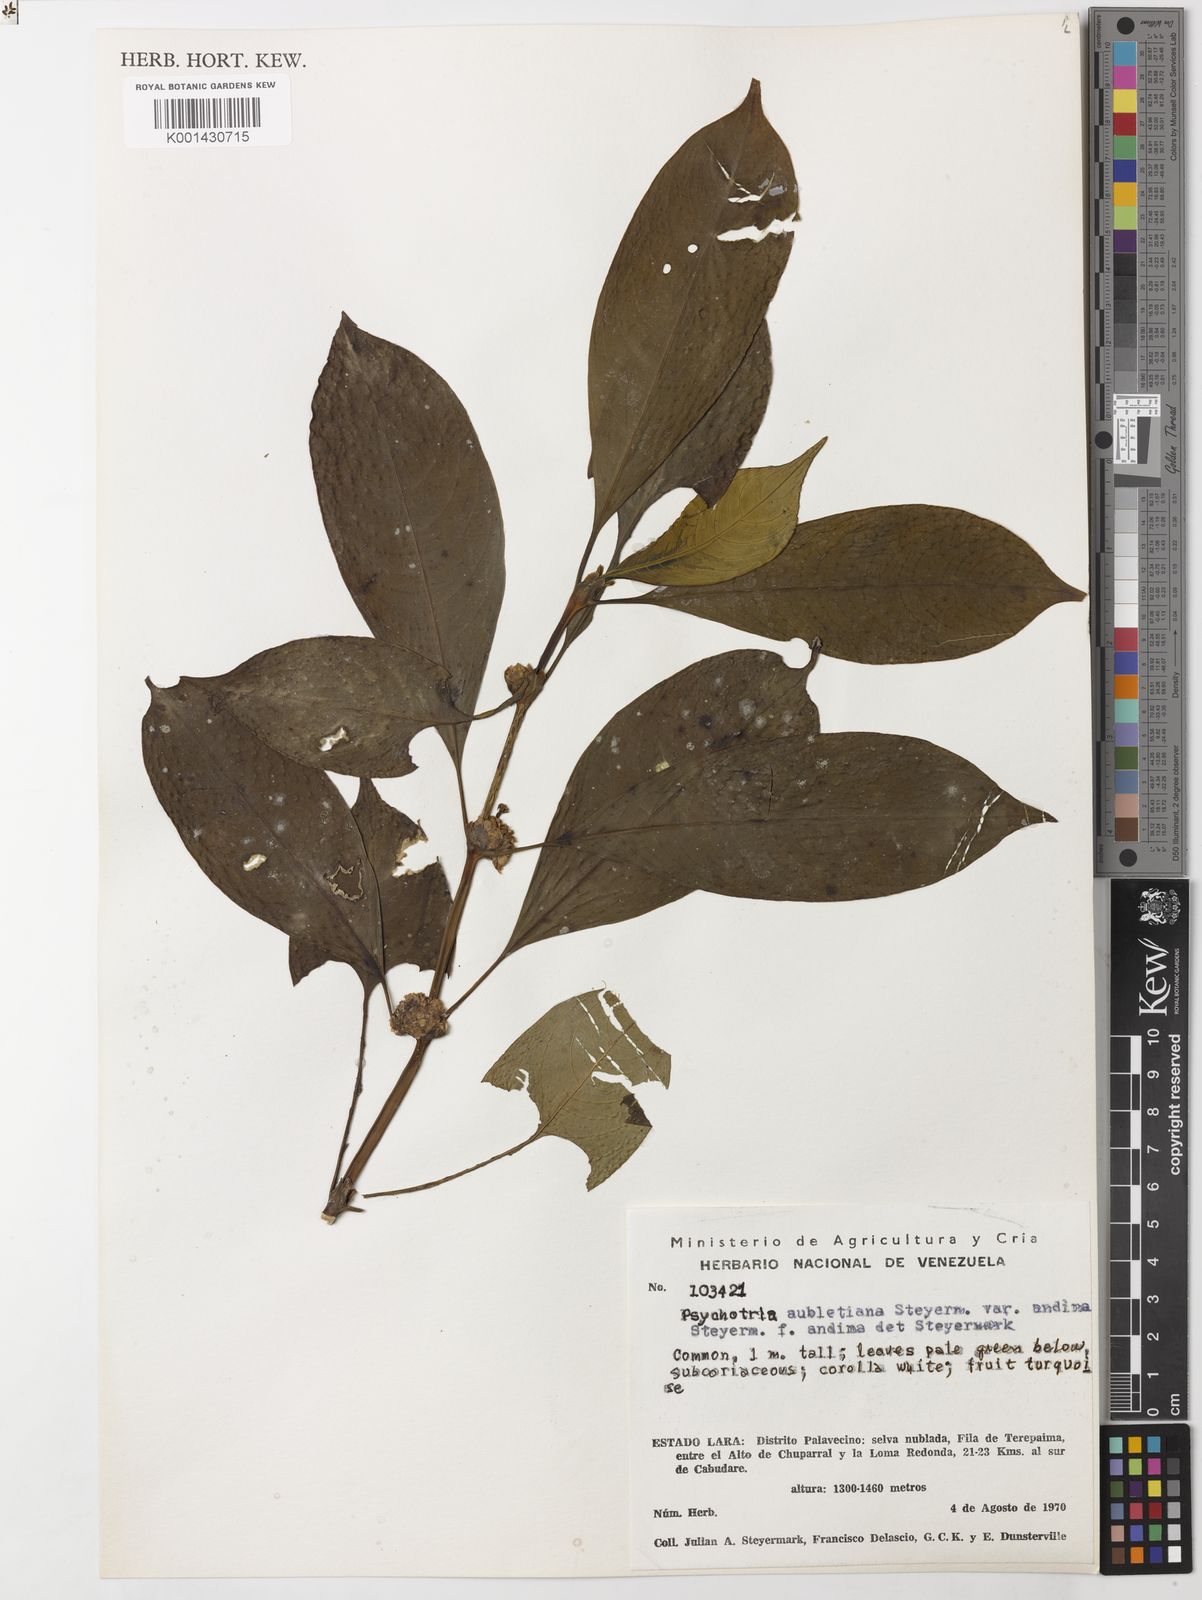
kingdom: Plantae
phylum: Tracheophyta
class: Magnoliopsida
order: Gentianales
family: Rubiaceae
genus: Palicourea
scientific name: Palicourea axillaris
